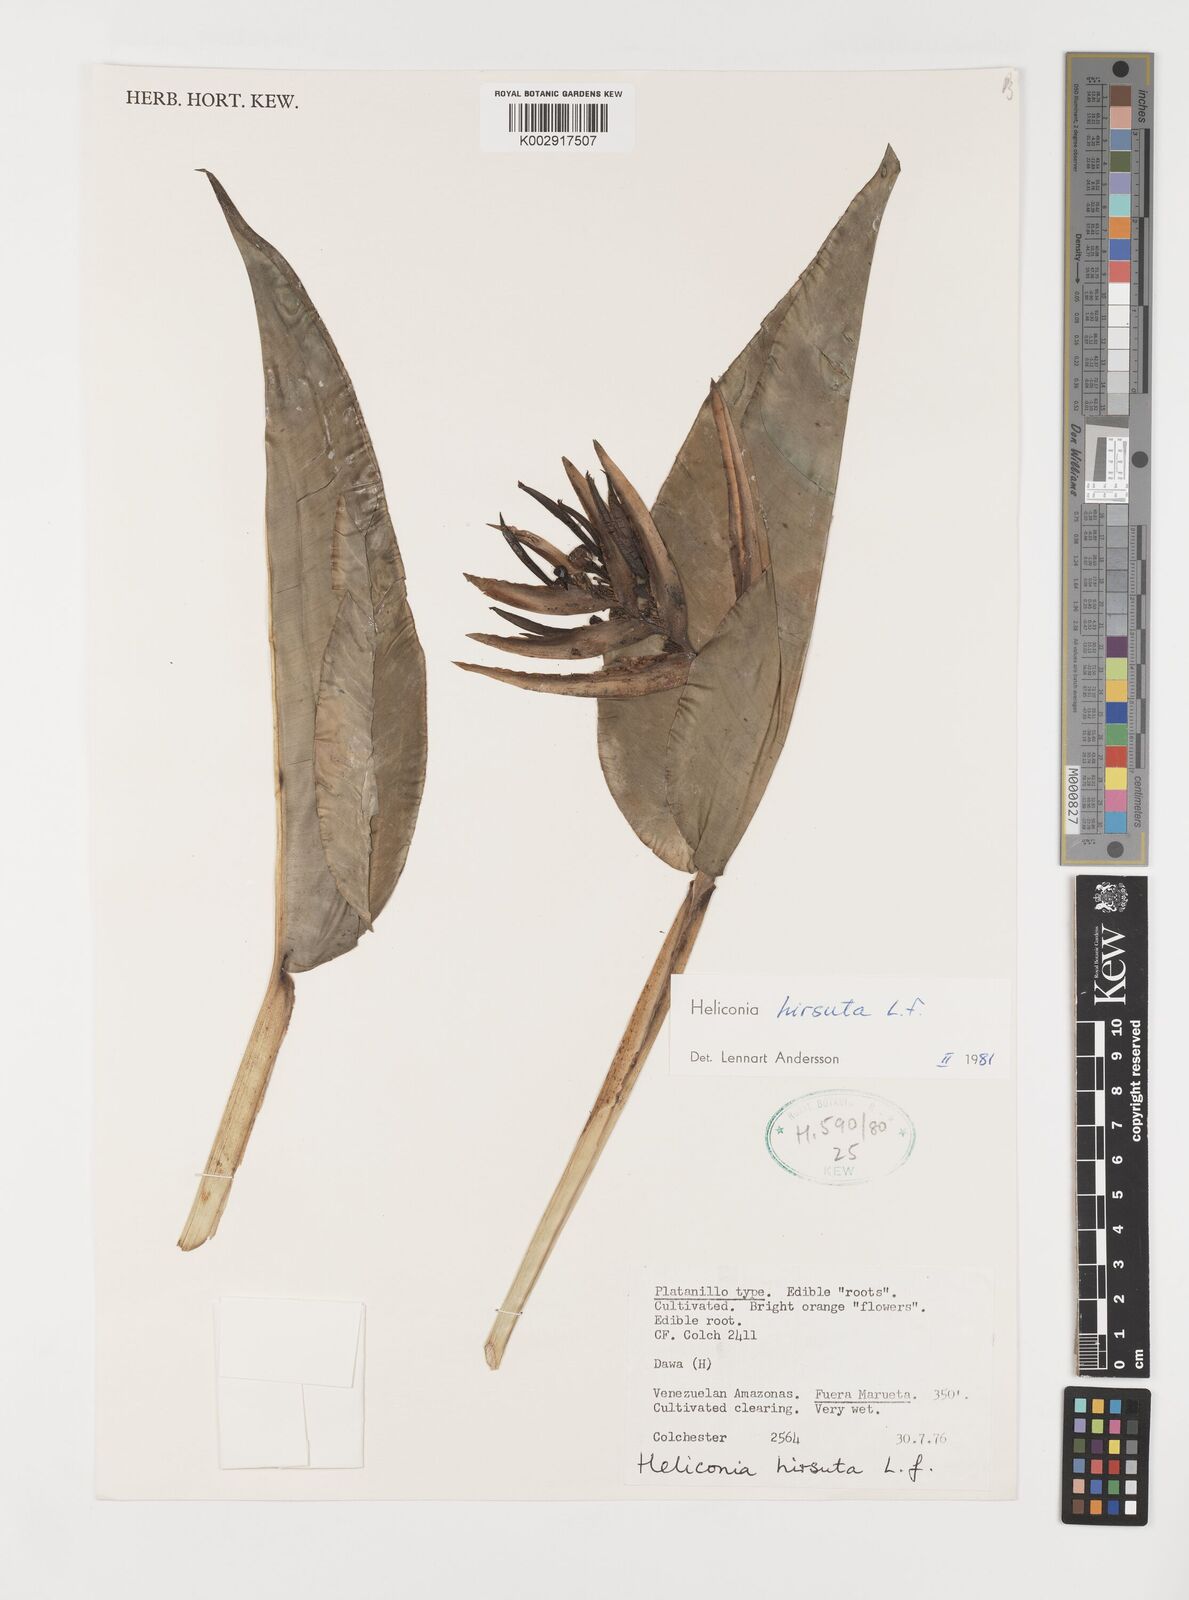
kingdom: Plantae
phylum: Tracheophyta
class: Liliopsida
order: Zingiberales
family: Heliconiaceae
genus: Heliconia
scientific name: Heliconia hirsuta
